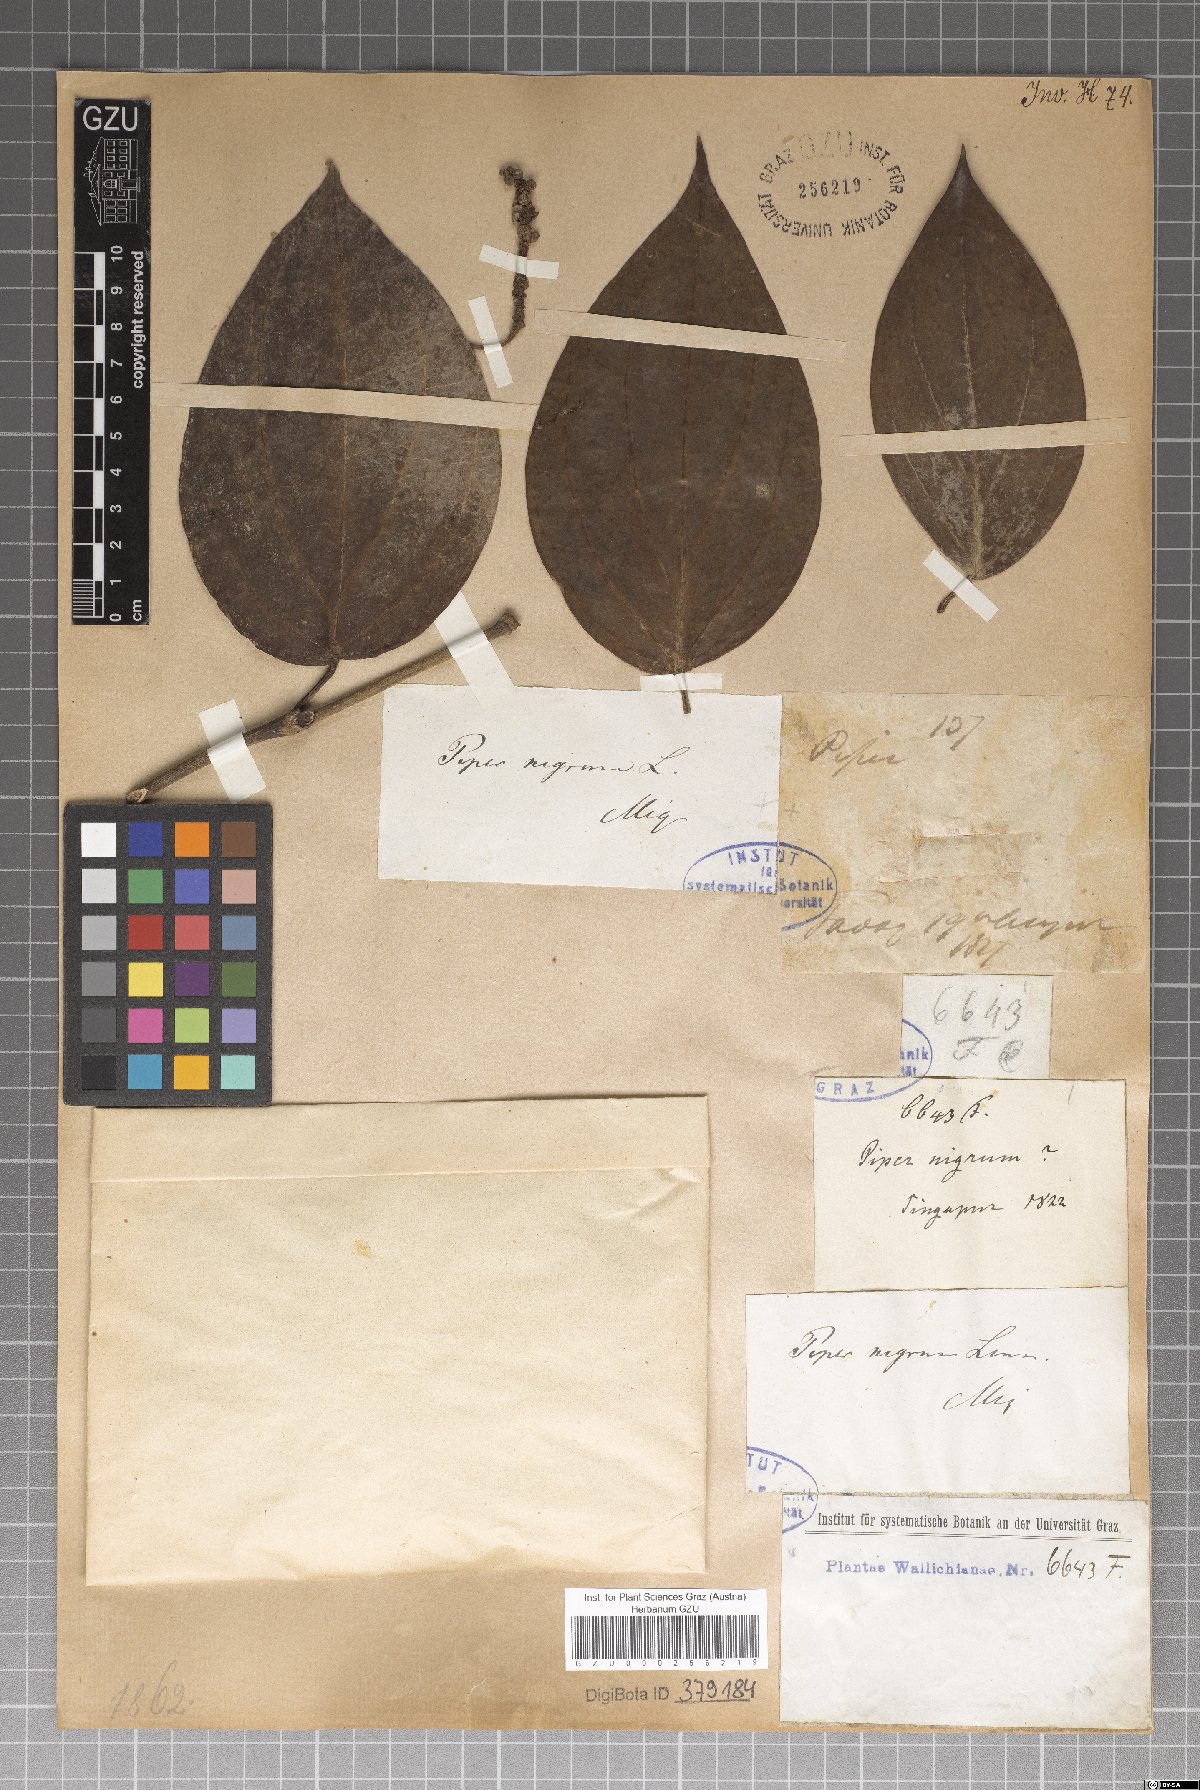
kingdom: Plantae
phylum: Tracheophyta
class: Magnoliopsida
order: Piperales
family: Piperaceae
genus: Piper
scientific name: Piper nigrum
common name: Black pepper
